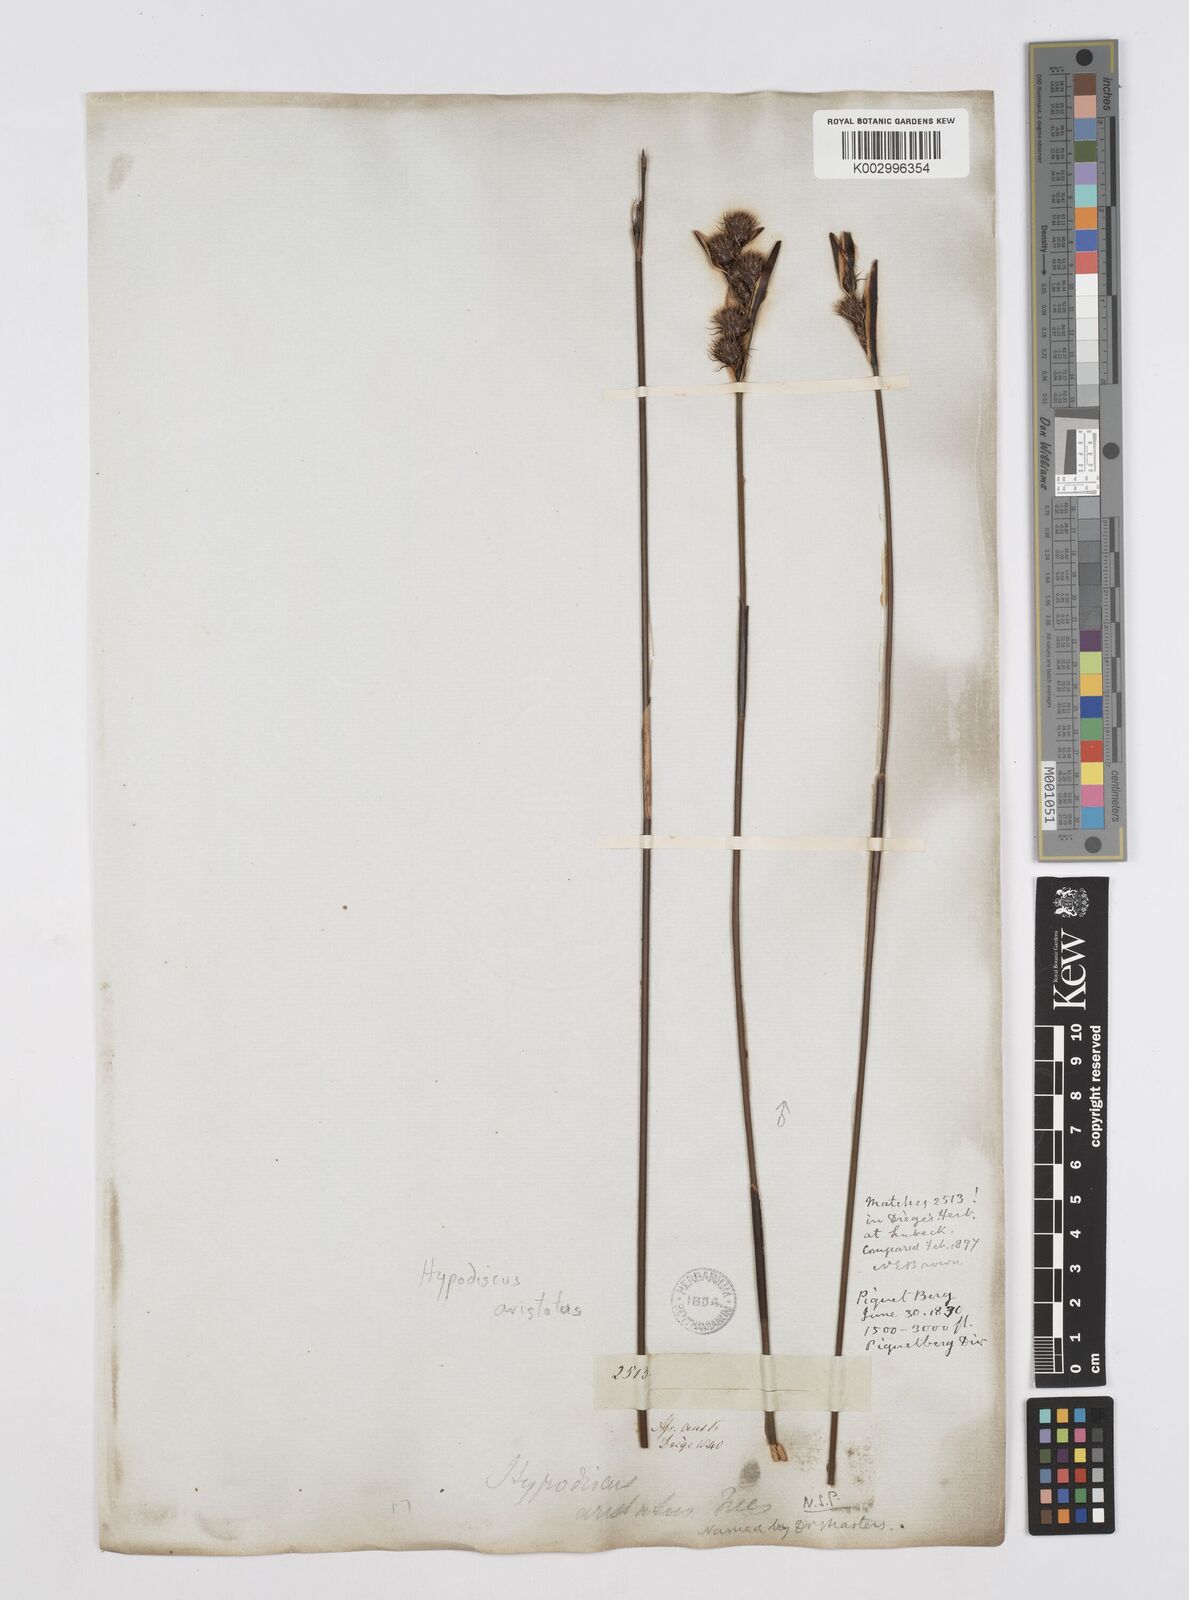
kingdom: Plantae
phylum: Tracheophyta
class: Liliopsida
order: Poales
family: Restionaceae
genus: Hypodiscus
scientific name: Hypodiscus aristatus
